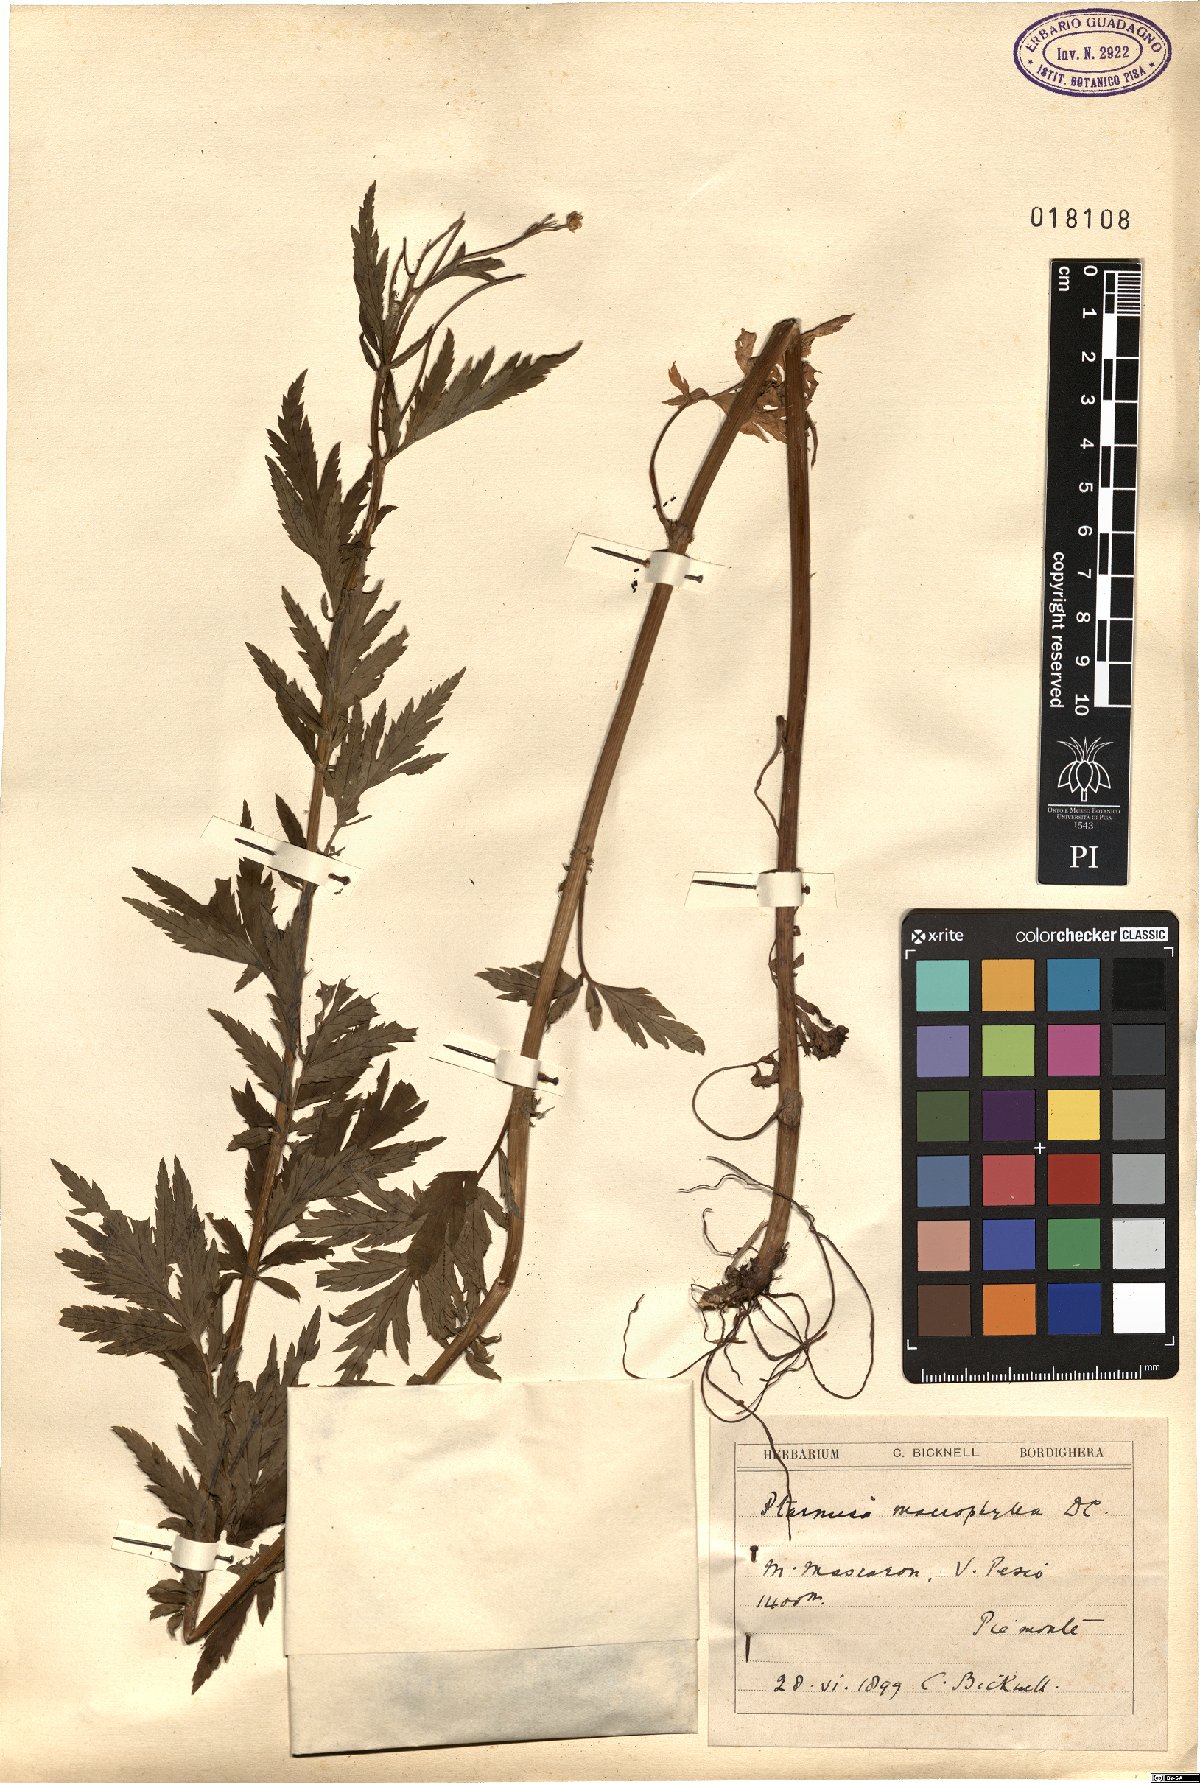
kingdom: Plantae
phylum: Tracheophyta
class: Magnoliopsida
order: Asterales
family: Asteraceae
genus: Achillea
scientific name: Achillea macrophylla
